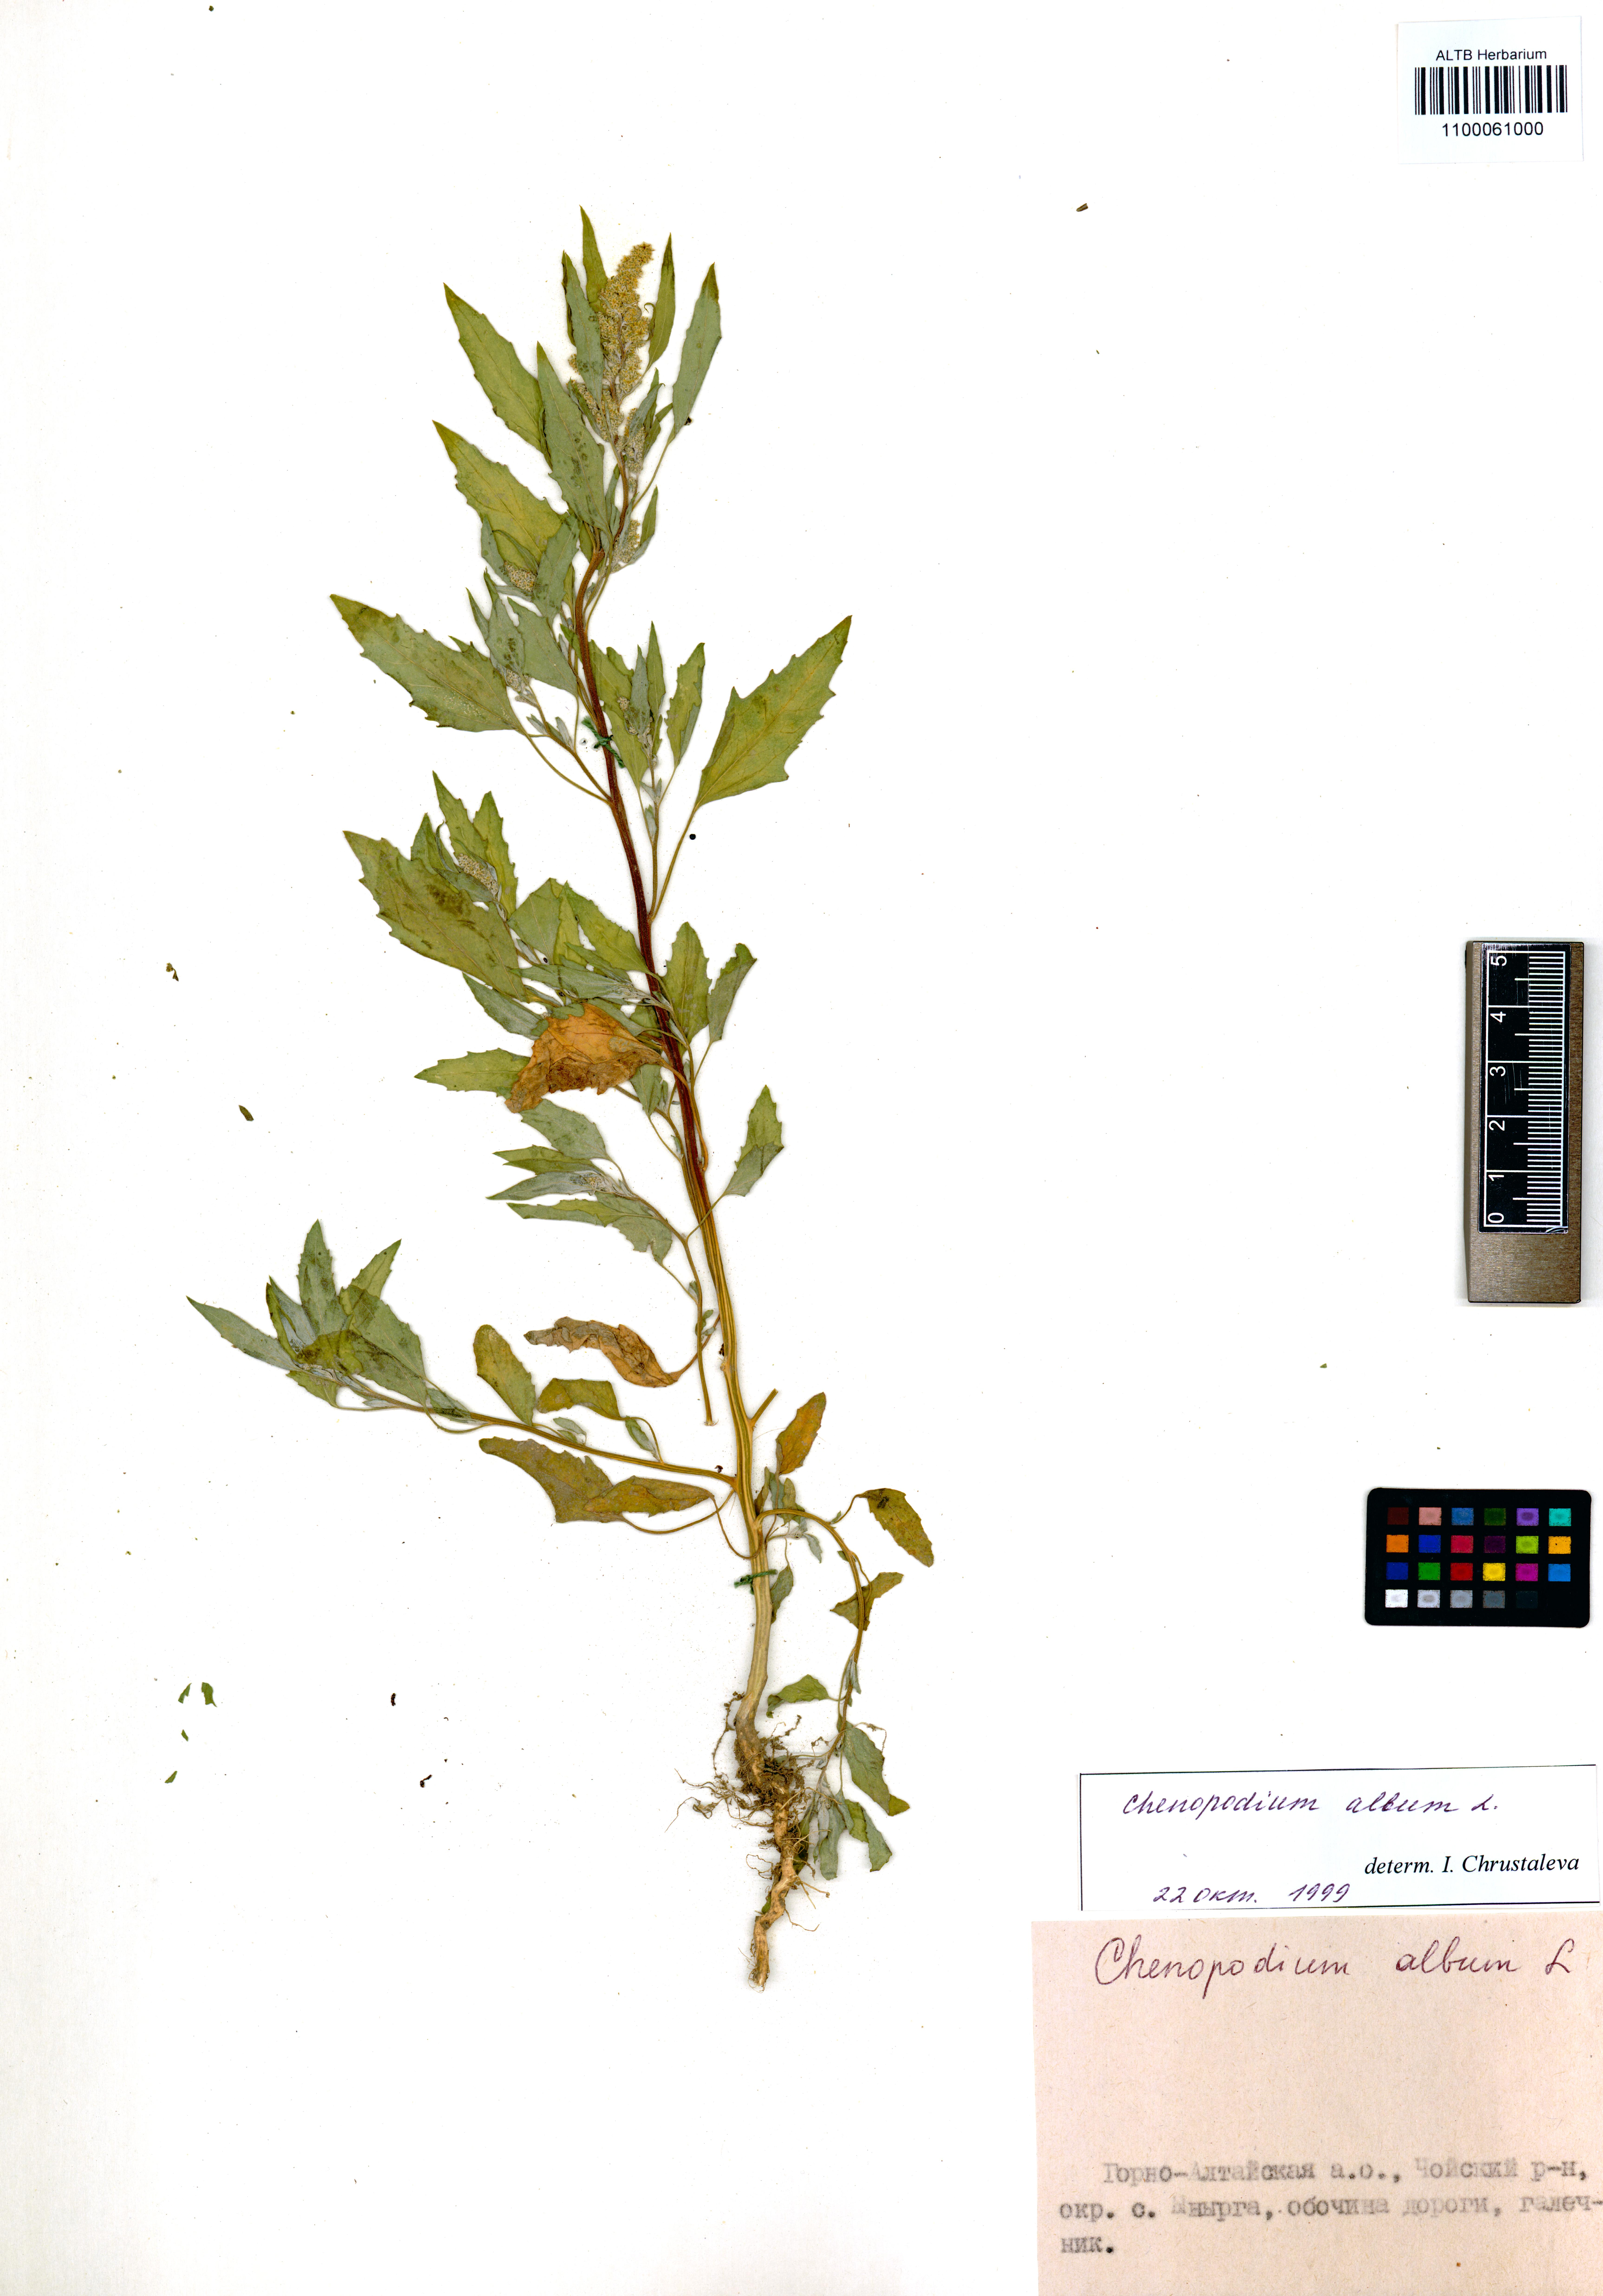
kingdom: Plantae
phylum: Tracheophyta
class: Magnoliopsida
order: Caryophyllales
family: Amaranthaceae
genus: Chenopodium
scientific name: Chenopodium album
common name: Fat-hen
